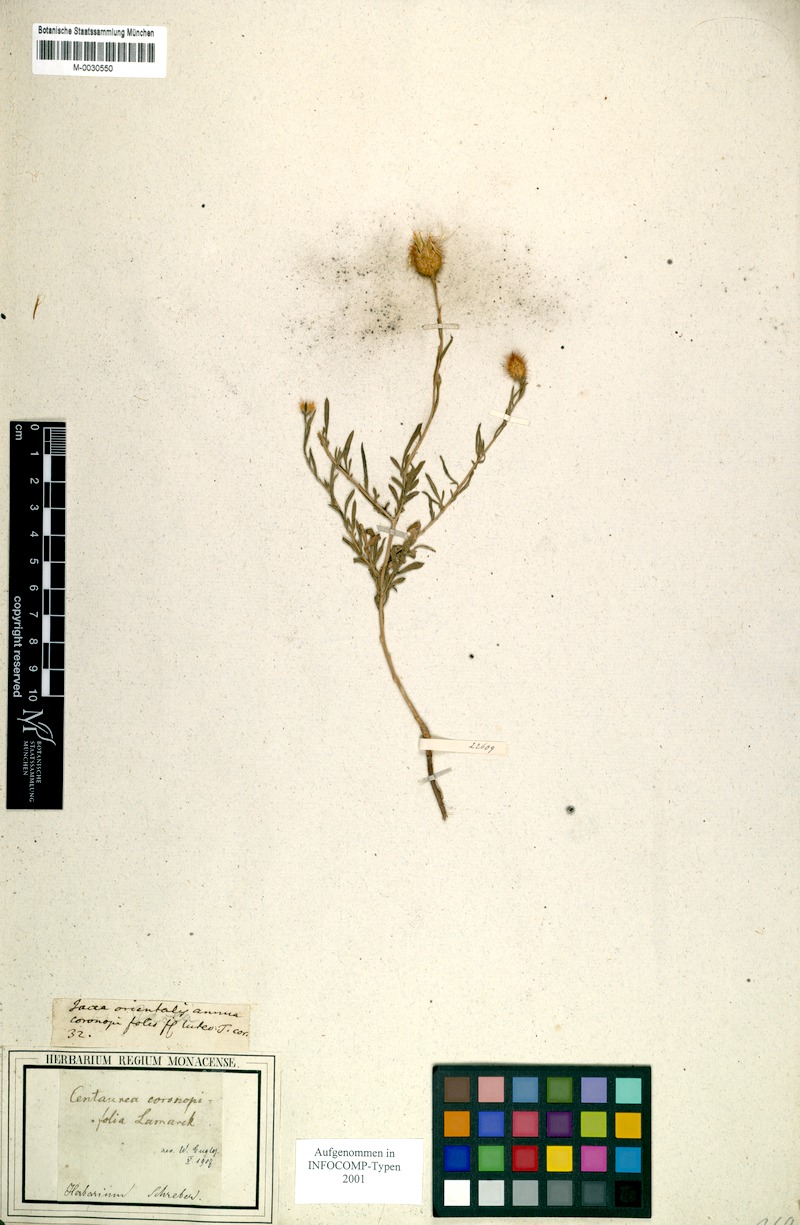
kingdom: Plantae
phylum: Tracheophyta
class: Magnoliopsida
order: Asterales
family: Asteraceae
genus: Stizolophus
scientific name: Stizolophus coronopifolius
